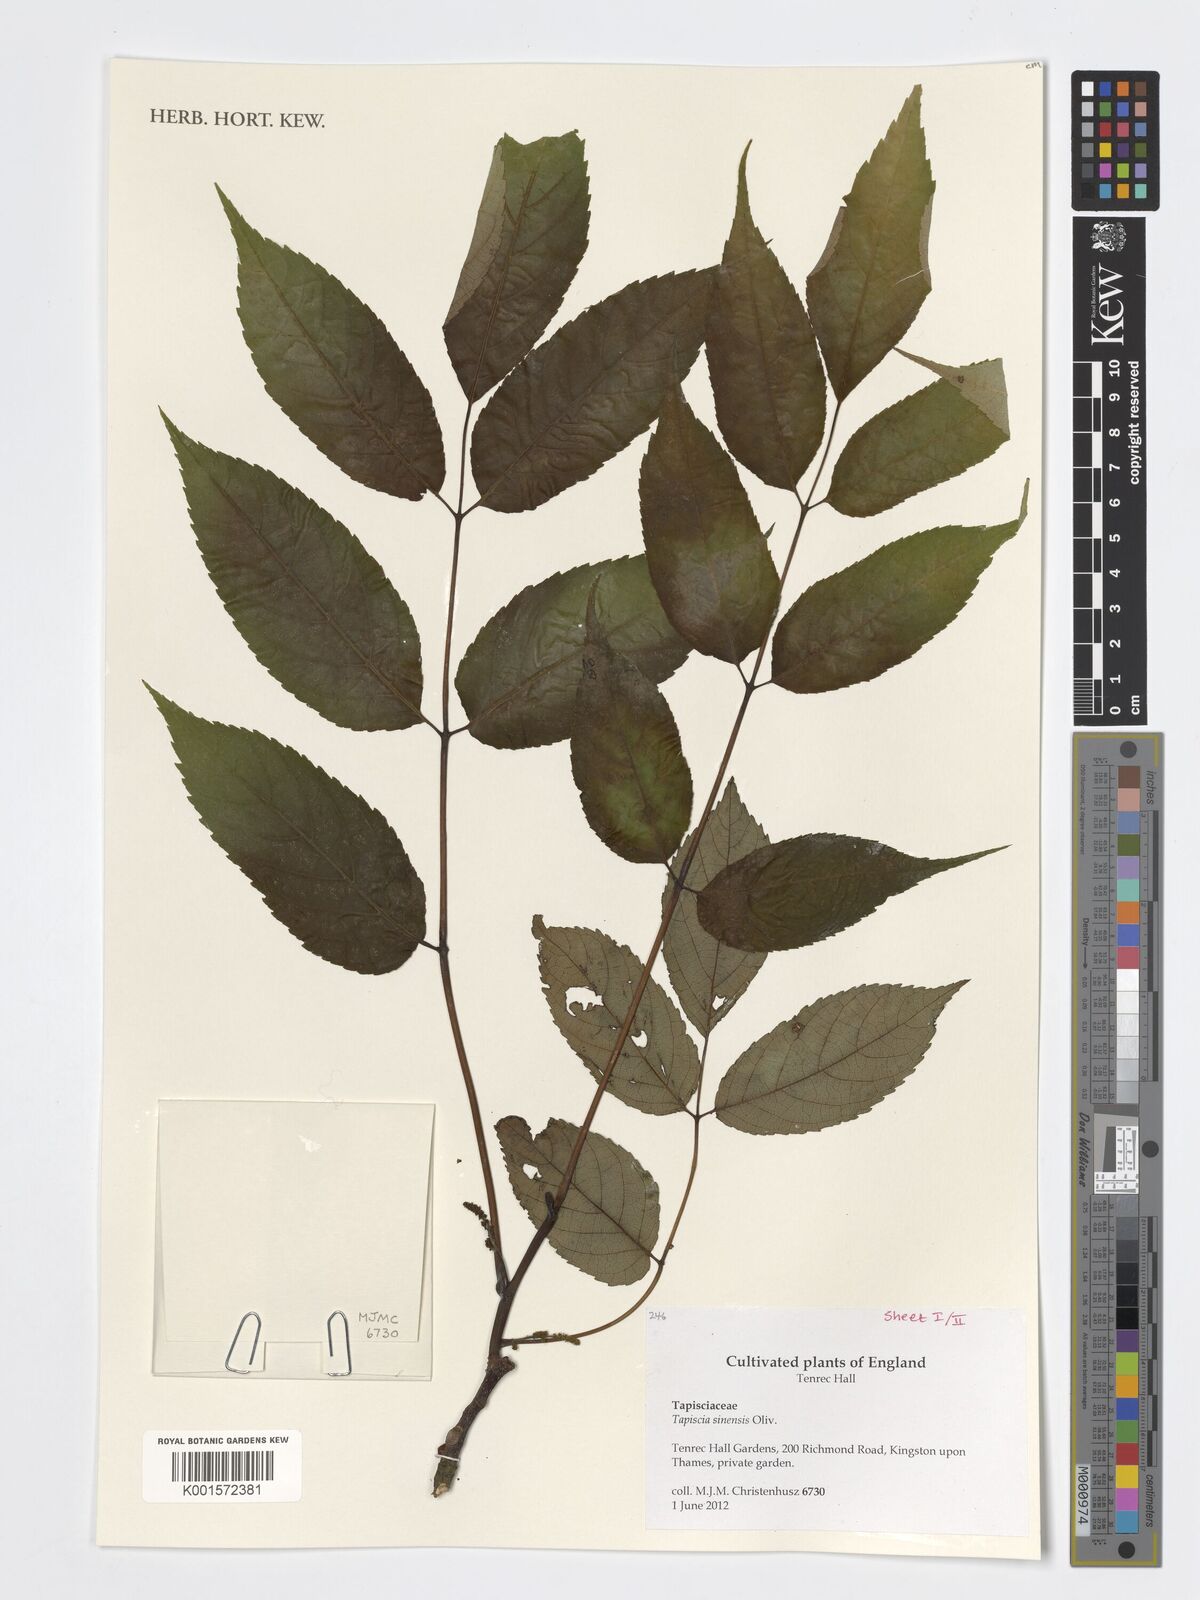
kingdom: Plantae
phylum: Tracheophyta
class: Magnoliopsida
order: Huerteales
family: Tapisciaceae
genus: Tapiscia
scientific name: Tapiscia sinensis
